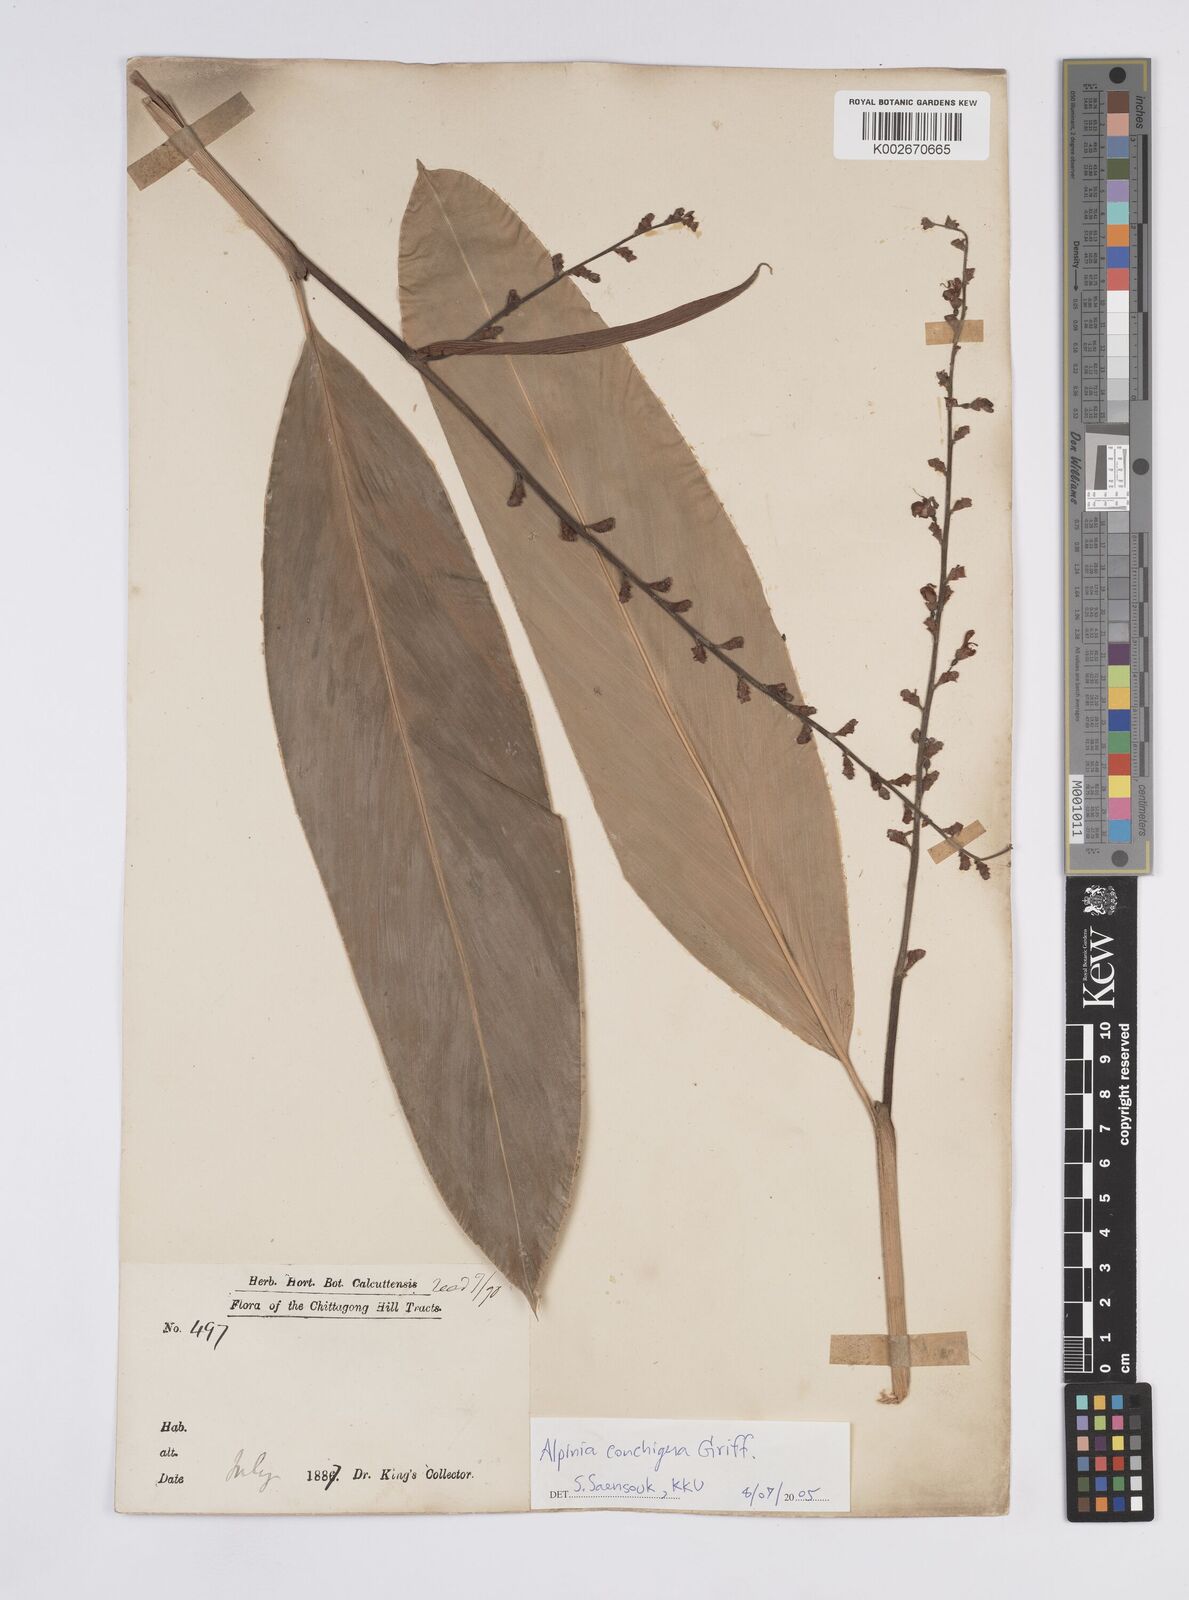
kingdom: Plantae
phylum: Tracheophyta
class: Liliopsida
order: Zingiberales
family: Zingiberaceae
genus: Alpinia
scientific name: Alpinia conchigera
